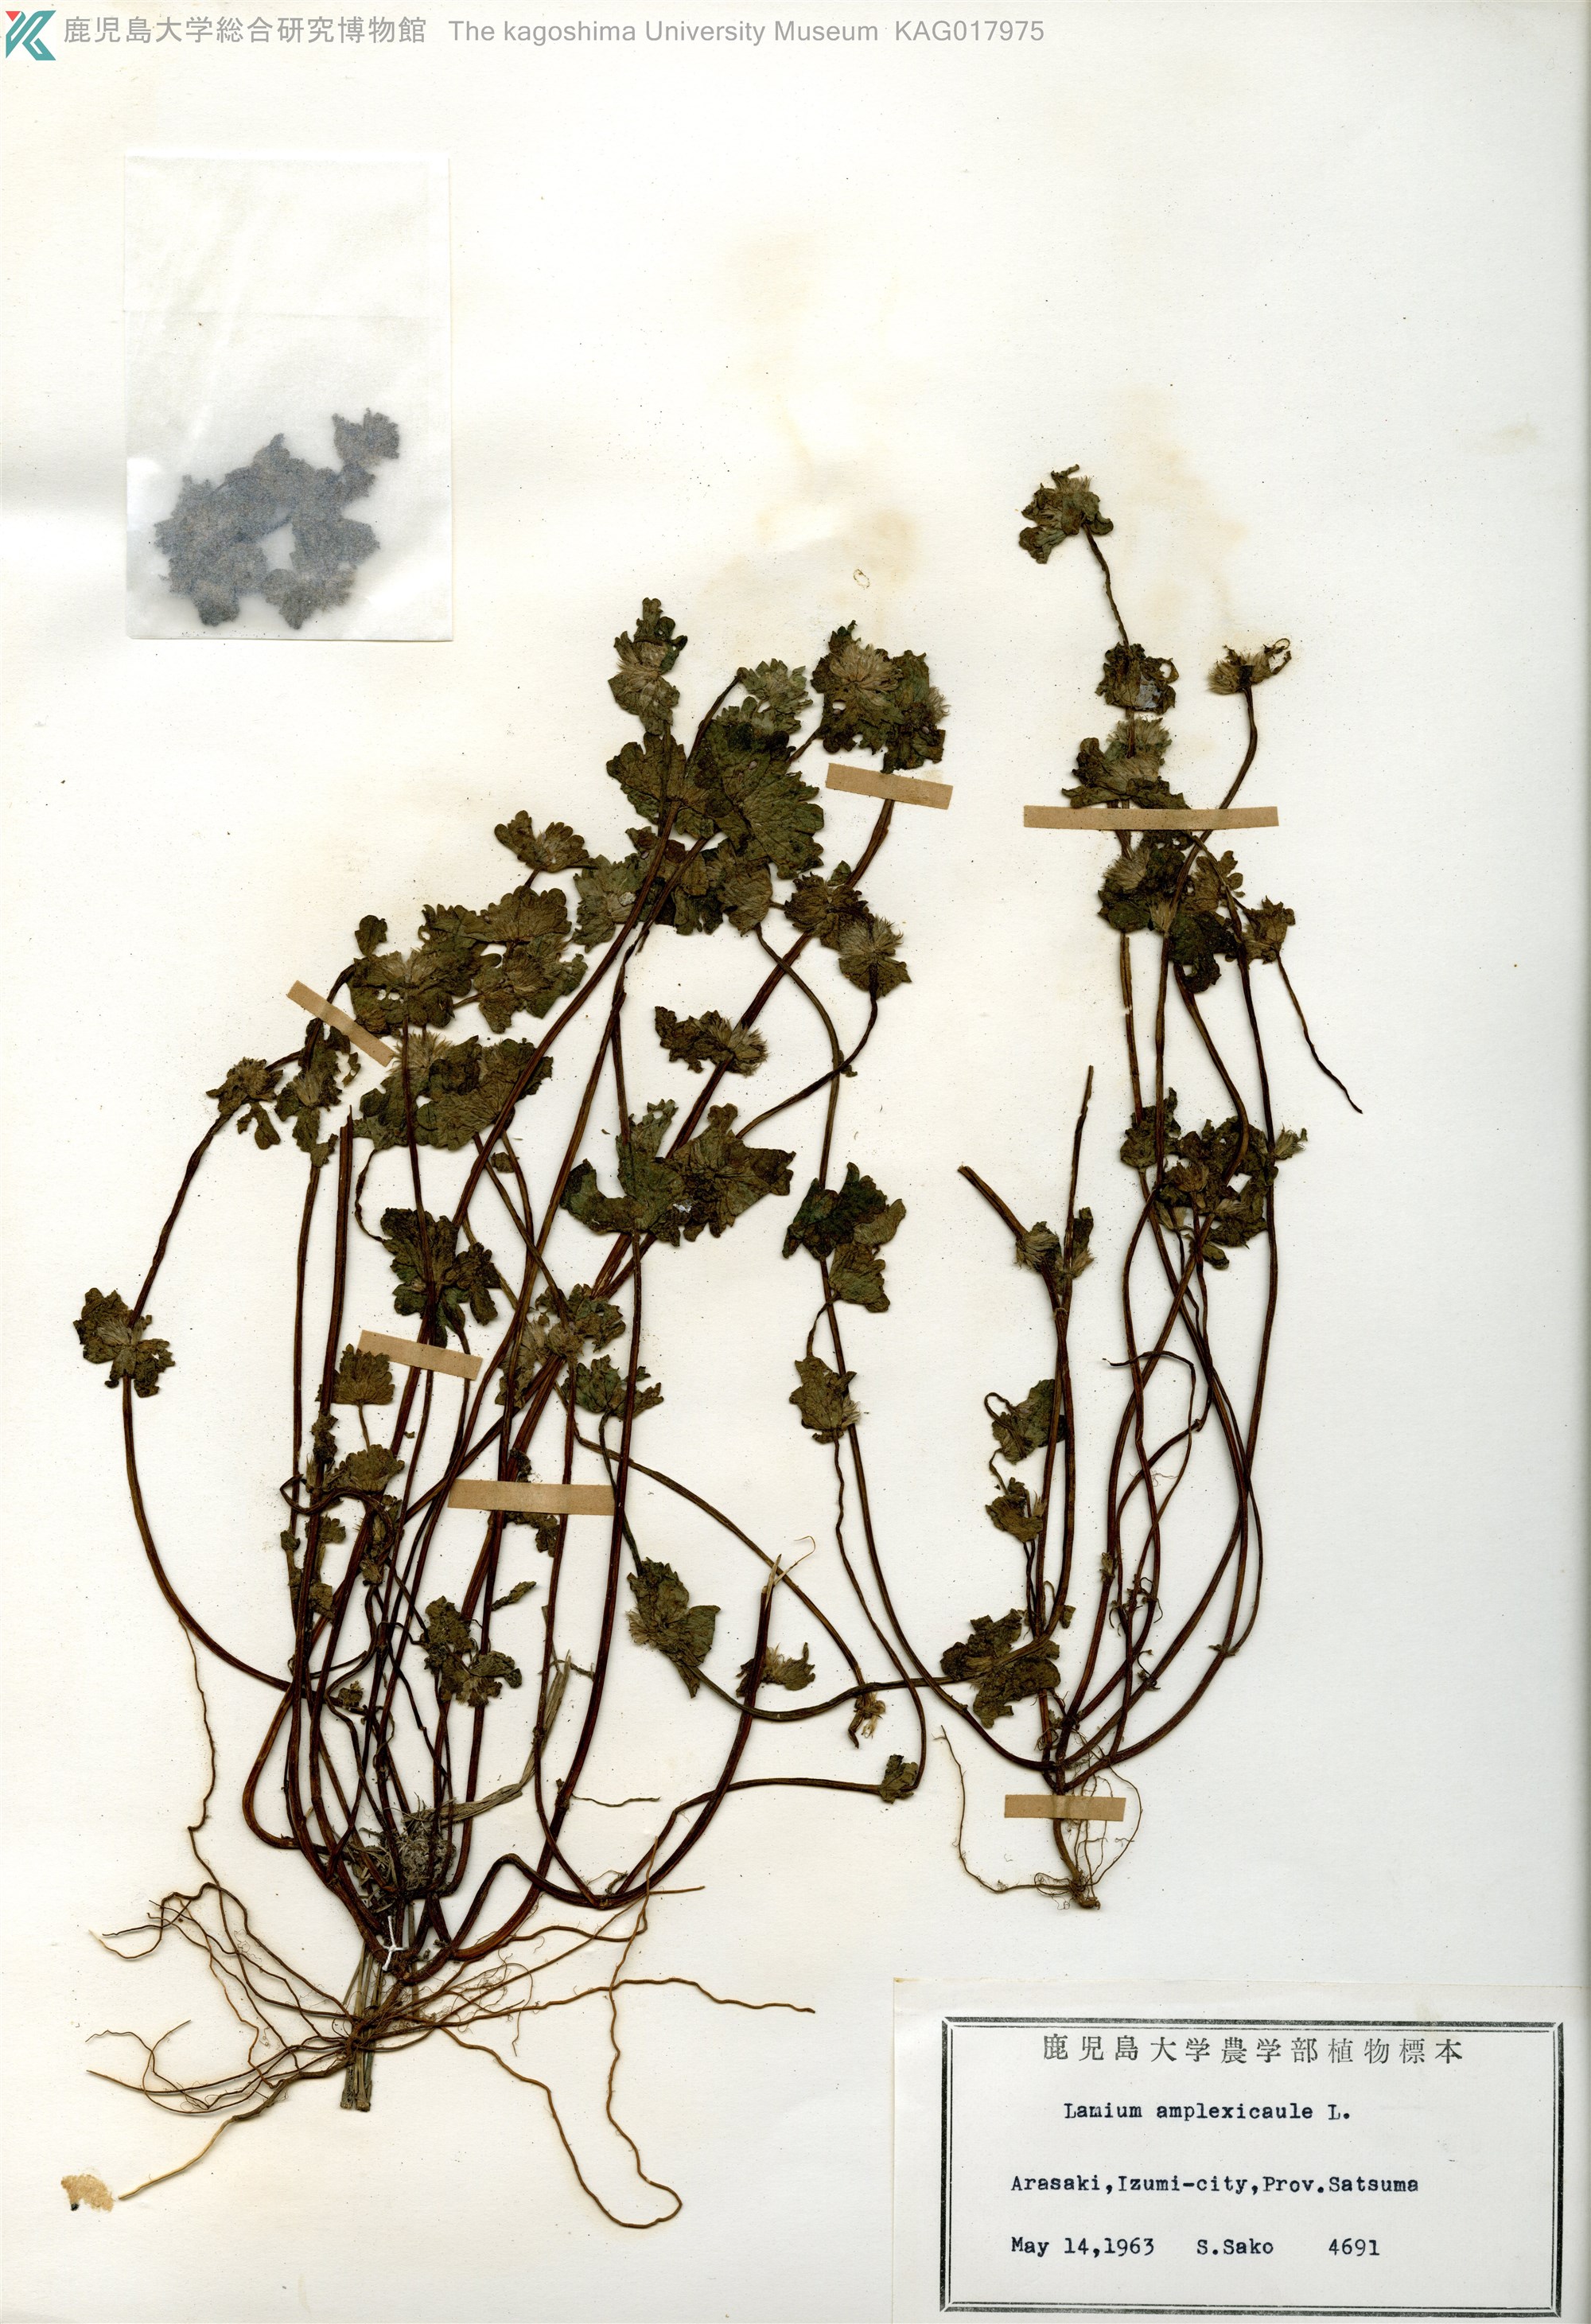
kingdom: Plantae
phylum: Tracheophyta
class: Magnoliopsida
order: Lamiales
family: Lamiaceae
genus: Lamium
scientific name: Lamium amplexicaule
